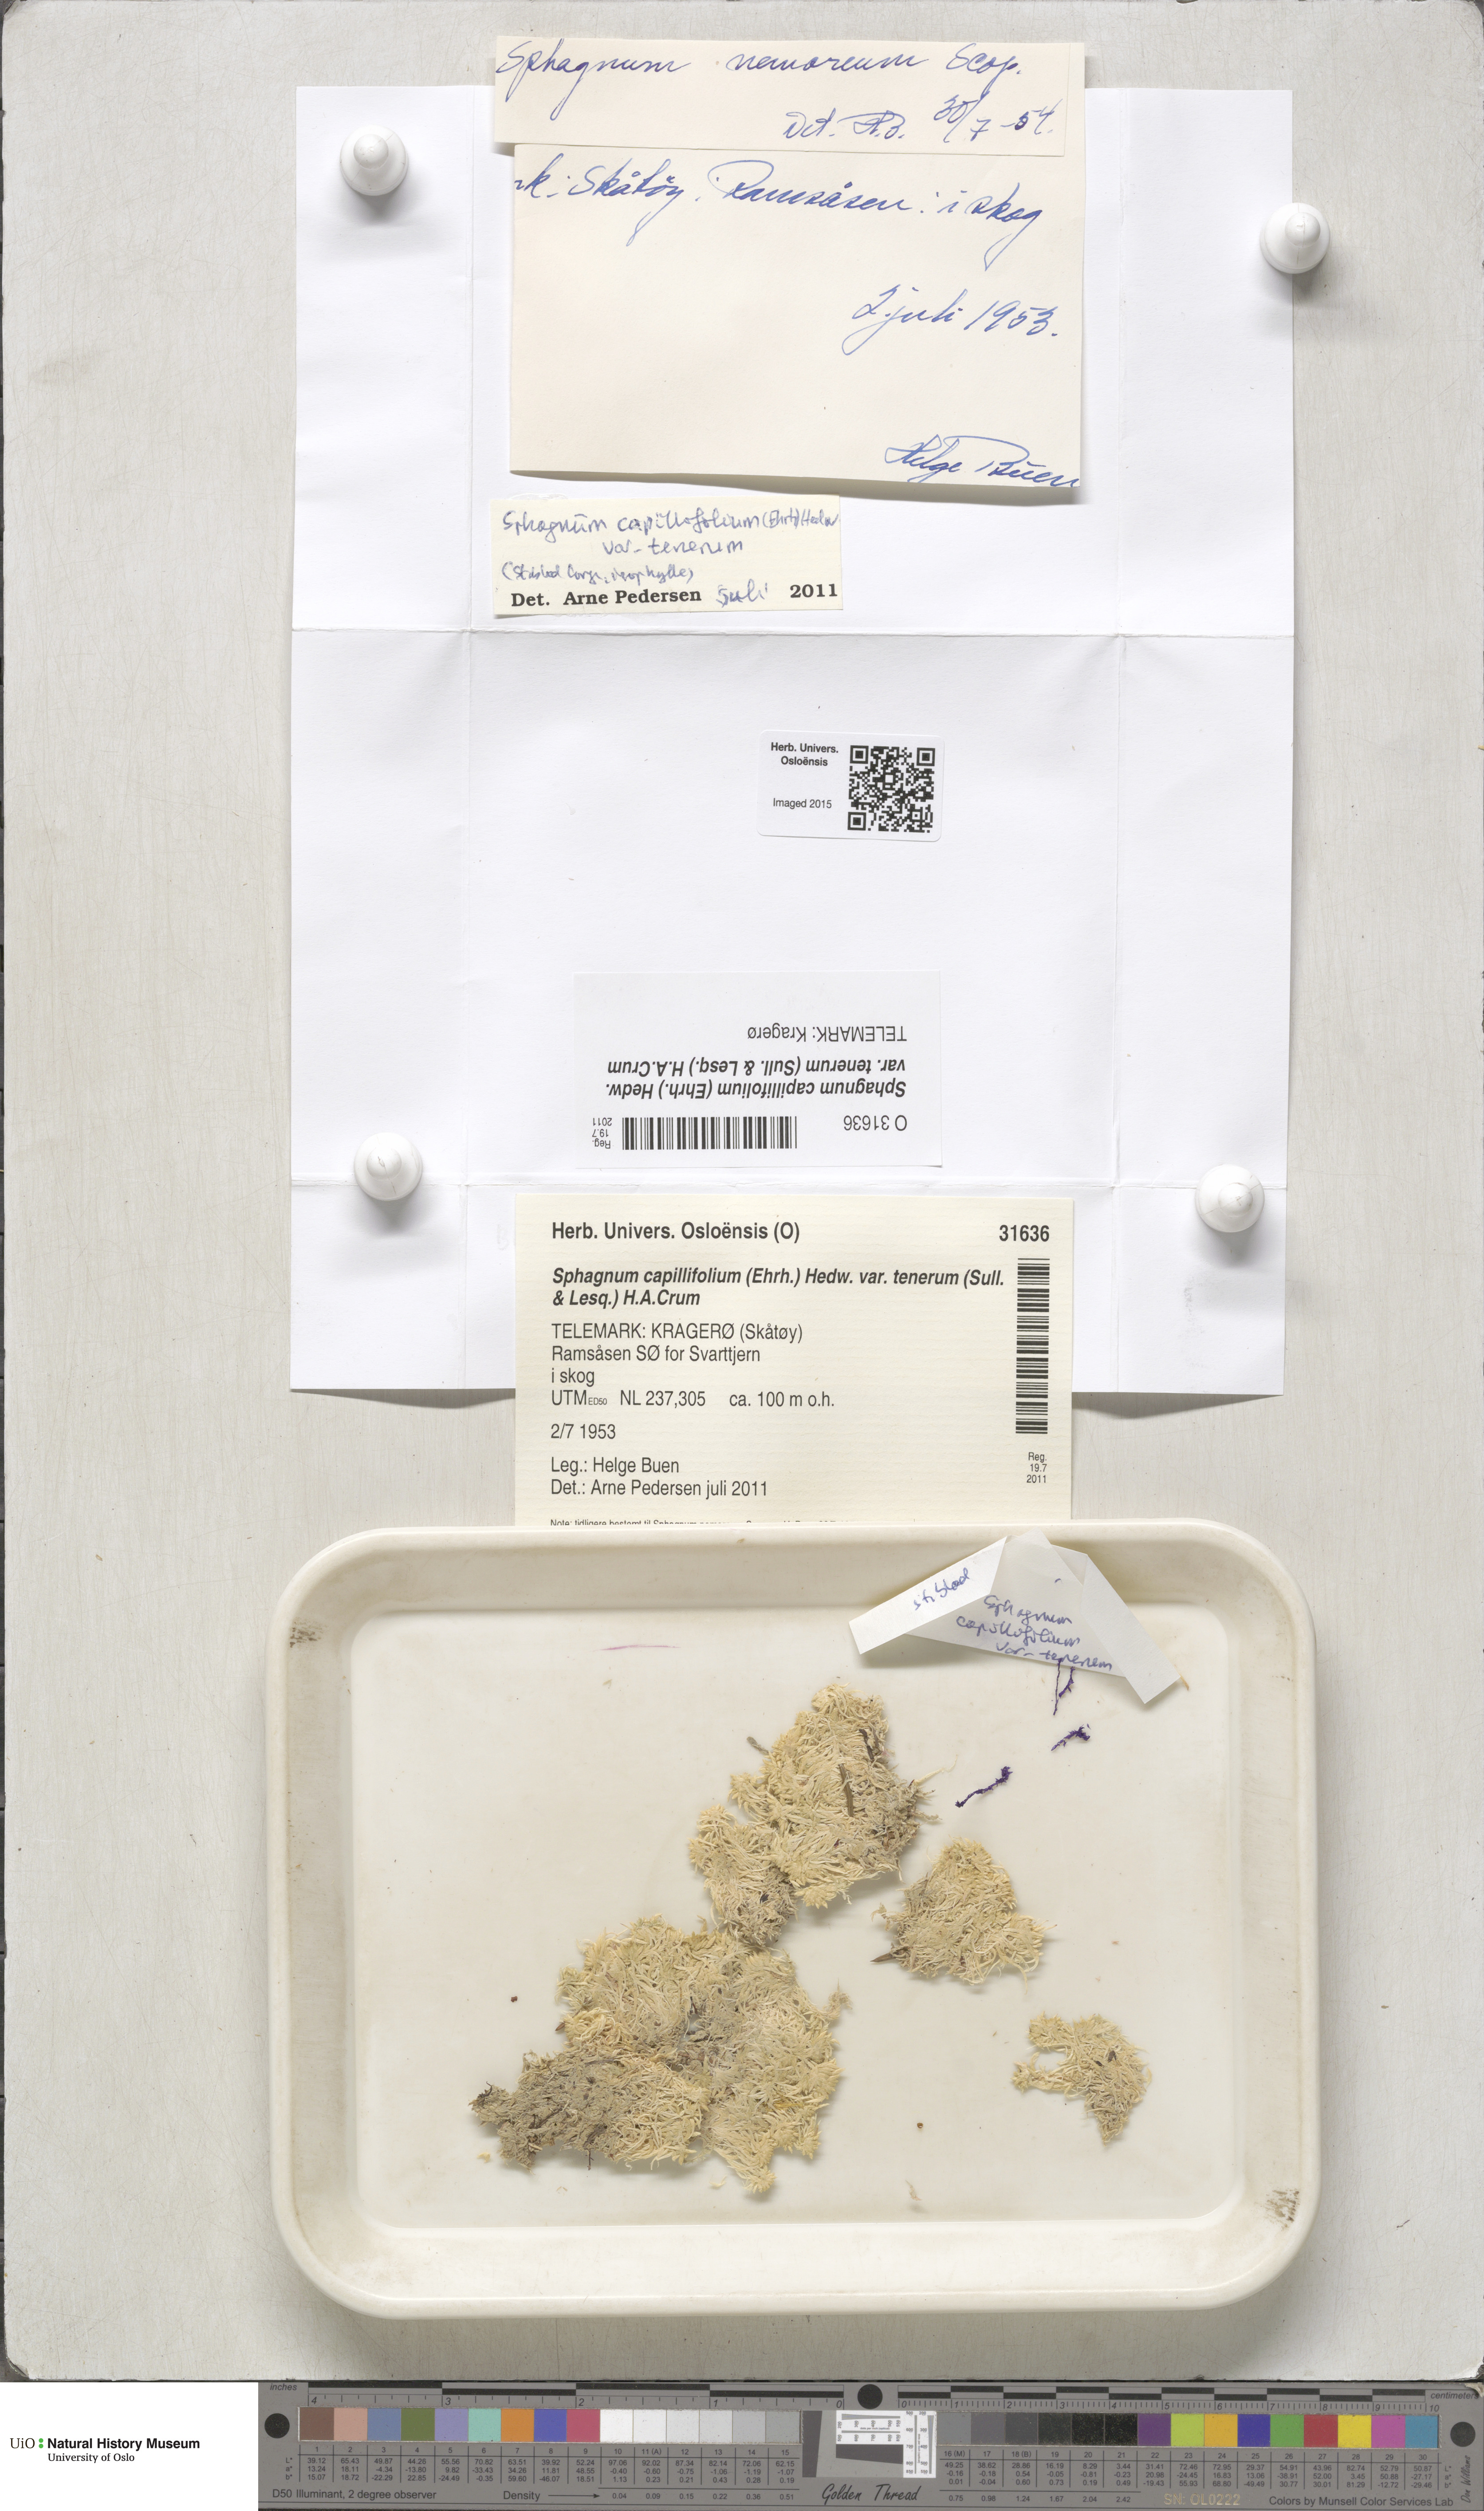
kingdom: Plantae
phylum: Bryophyta
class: Sphagnopsida
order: Sphagnales
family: Sphagnaceae
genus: Sphagnum
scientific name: Sphagnum tenerum
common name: Slender peat moss
